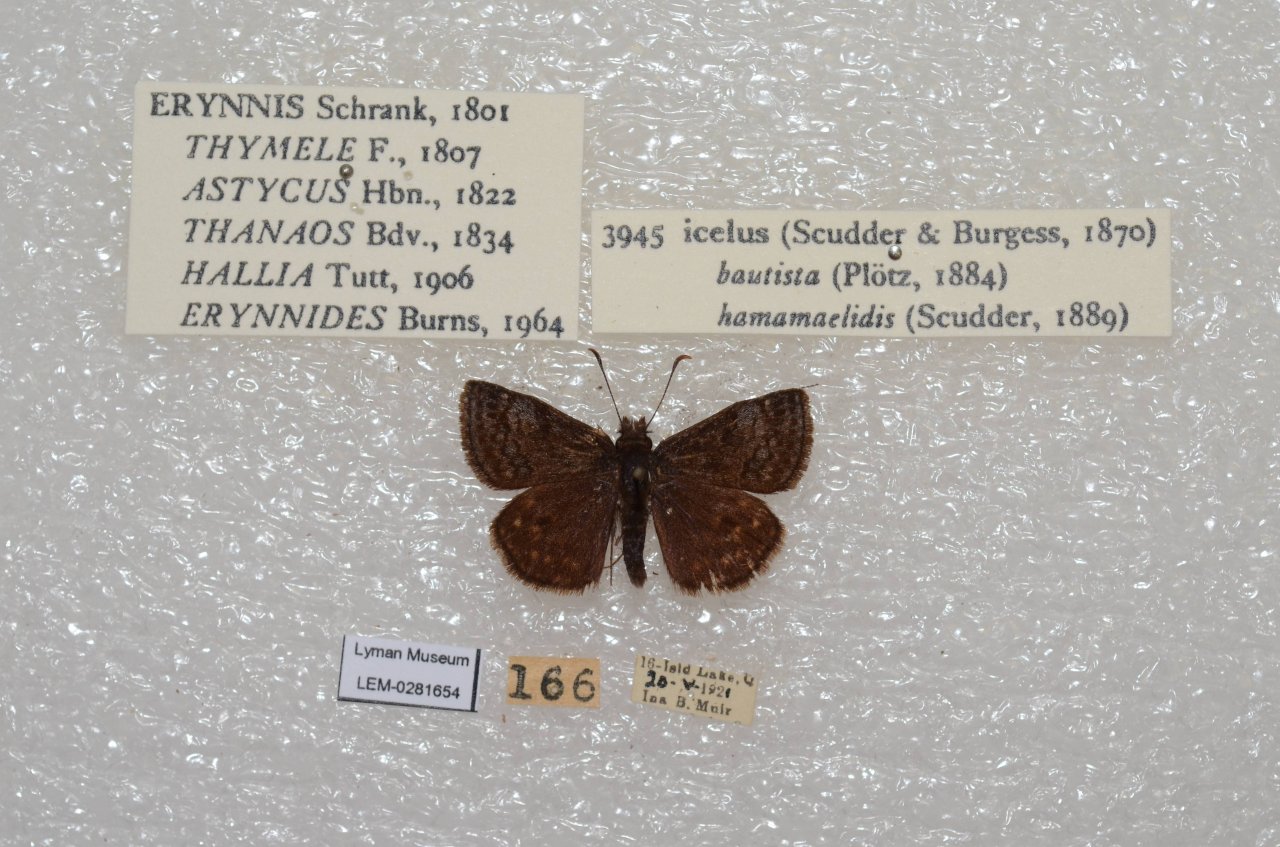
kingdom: Animalia
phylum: Arthropoda
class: Insecta
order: Lepidoptera
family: Hesperiidae
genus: Erynnis
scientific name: Erynnis icelus
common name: Dreamy Duskywing
